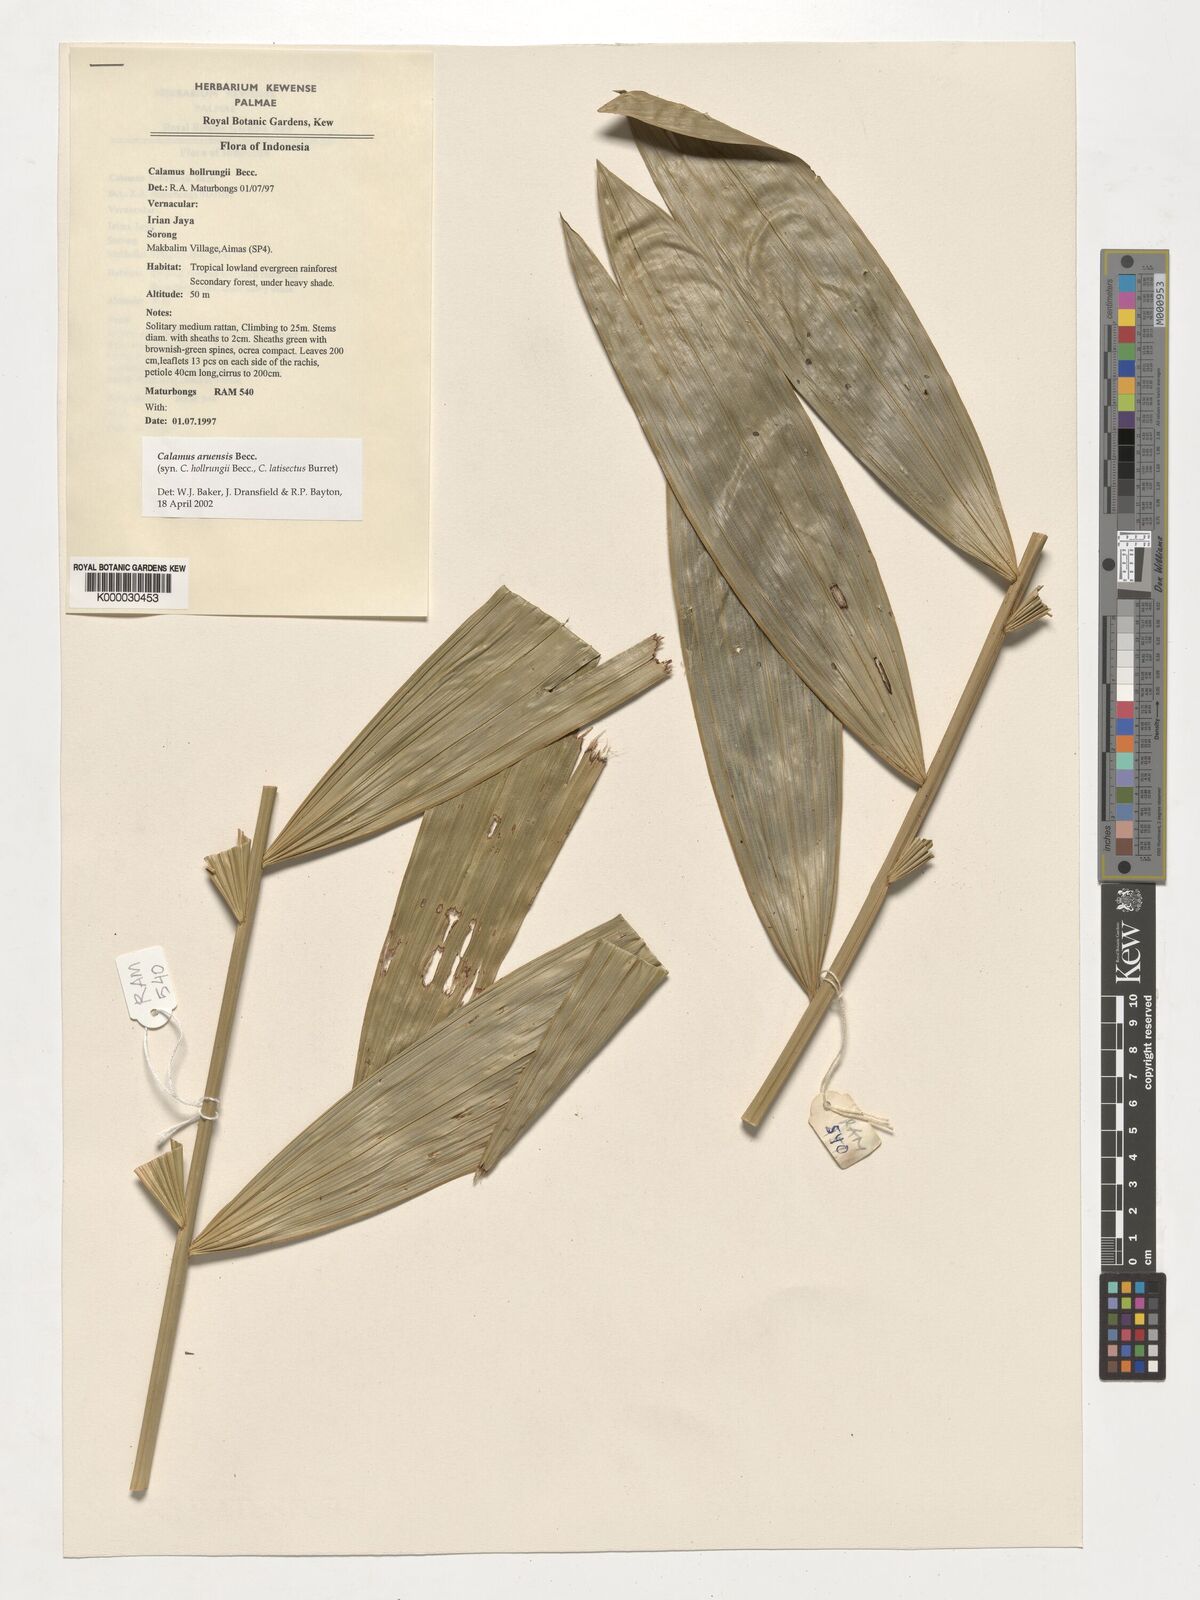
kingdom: Plantae
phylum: Tracheophyta
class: Liliopsida
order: Arecales
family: Arecaceae
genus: Calamus
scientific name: Calamus aruensis
